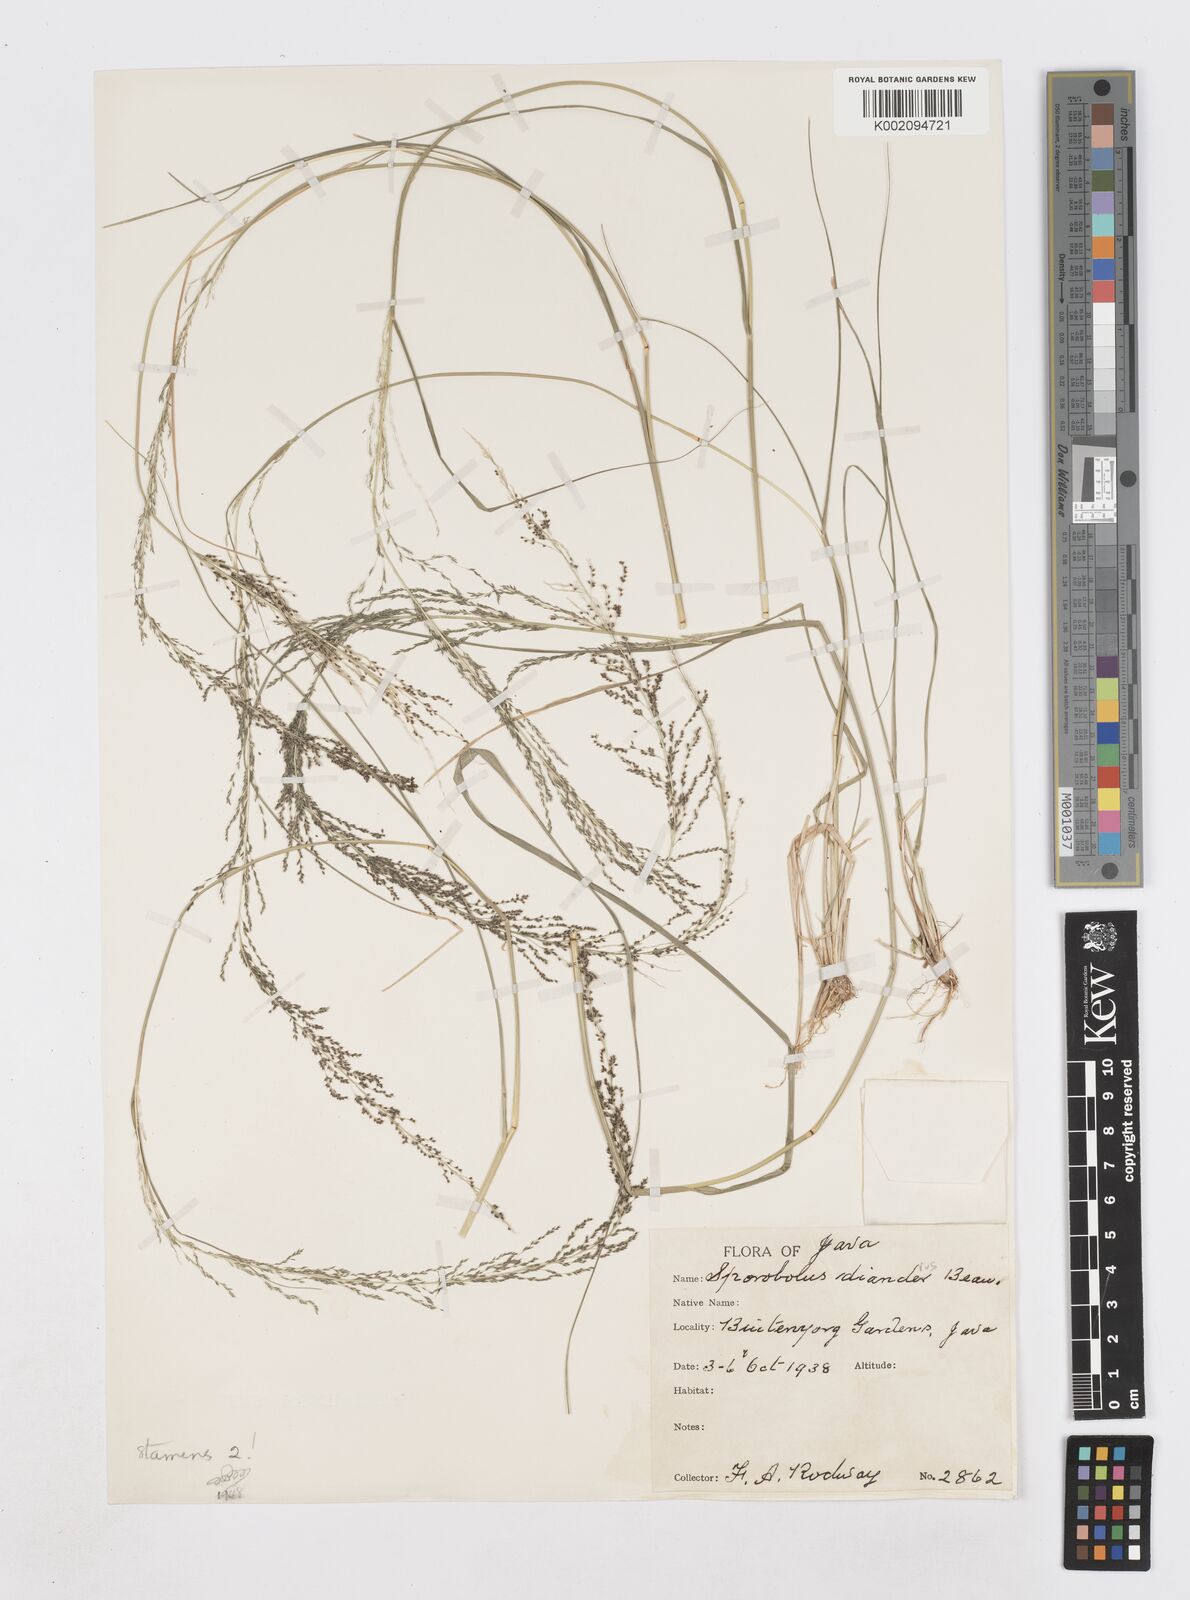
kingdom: Plantae
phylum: Tracheophyta
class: Liliopsida
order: Poales
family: Poaceae
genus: Sporobolus
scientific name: Sporobolus diandrus
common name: Tussock dropseed
